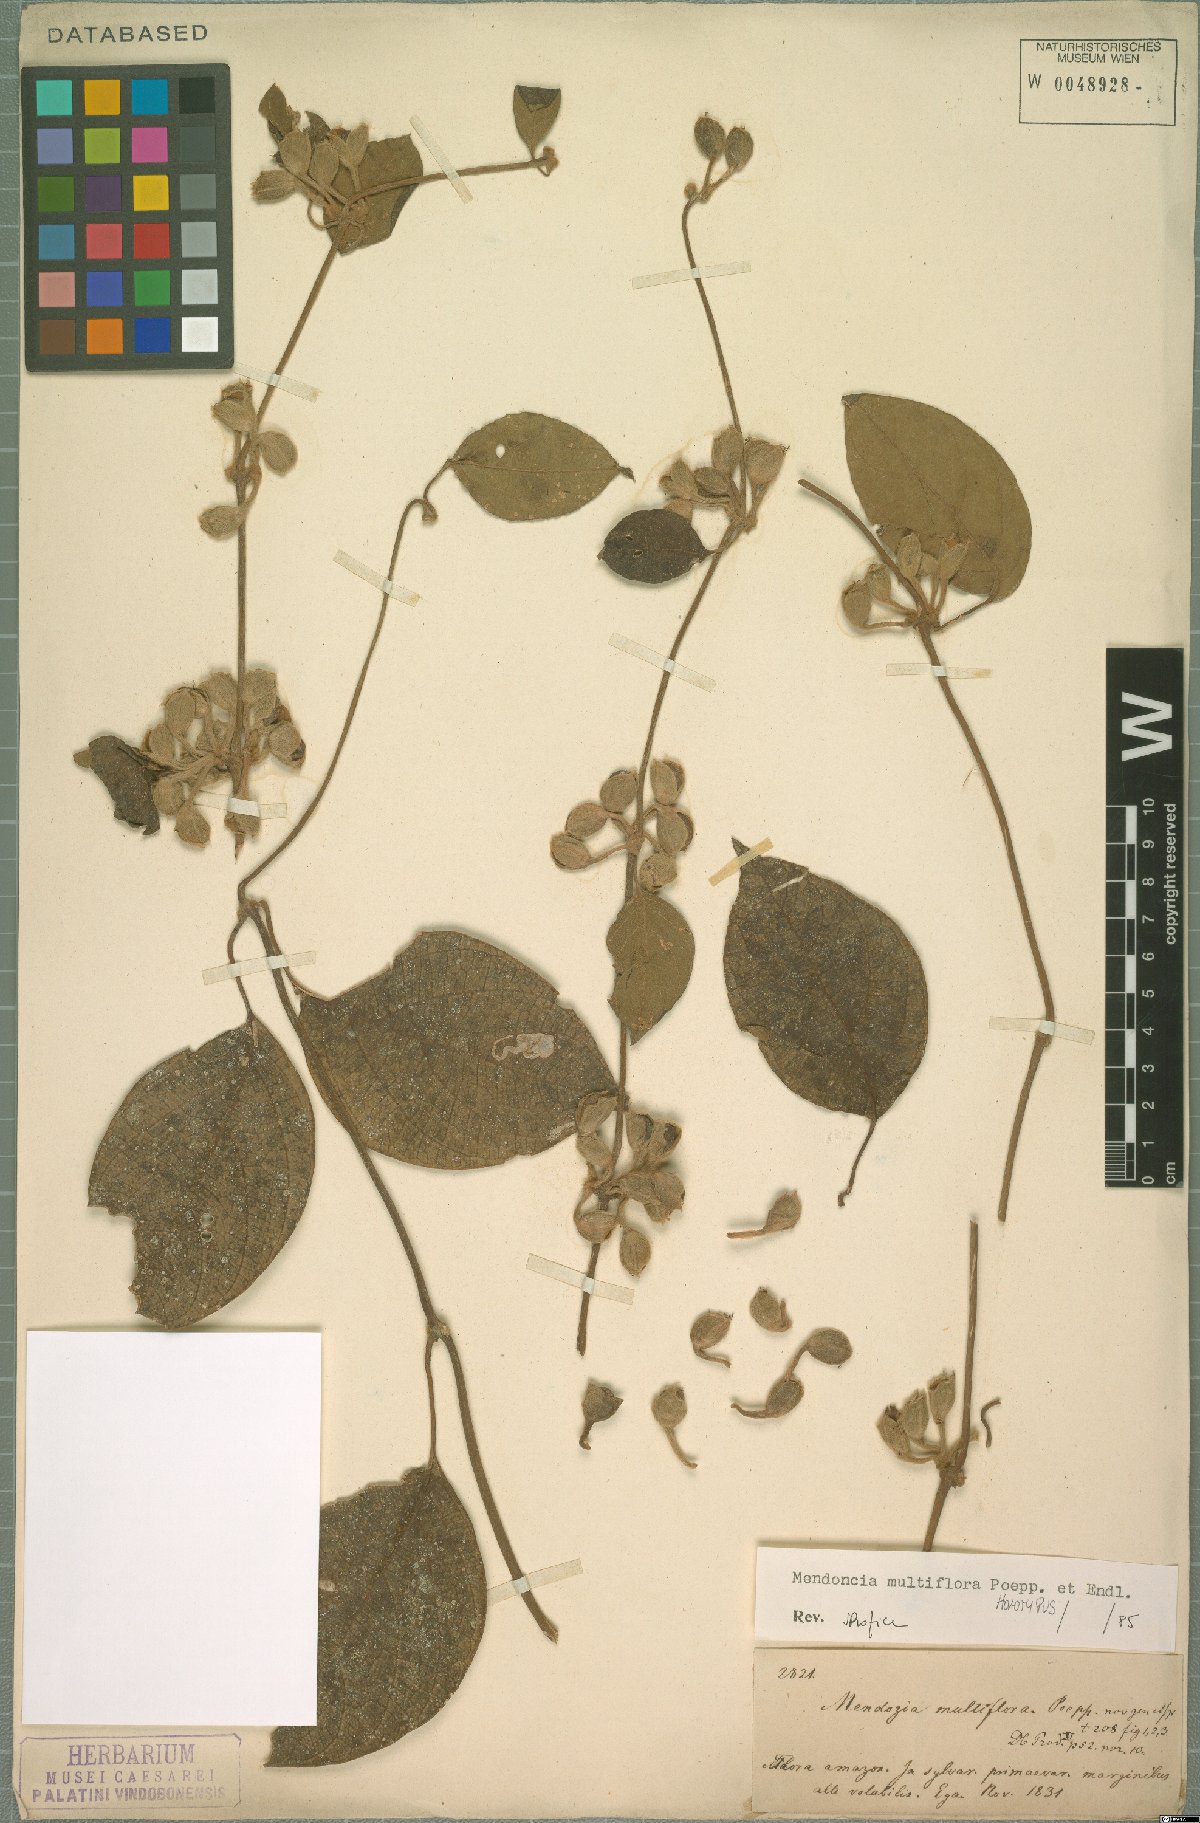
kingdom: Plantae
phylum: Tracheophyta
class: Magnoliopsida
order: Lamiales
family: Acanthaceae
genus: Mendoncia
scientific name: Mendoncia multiflora
